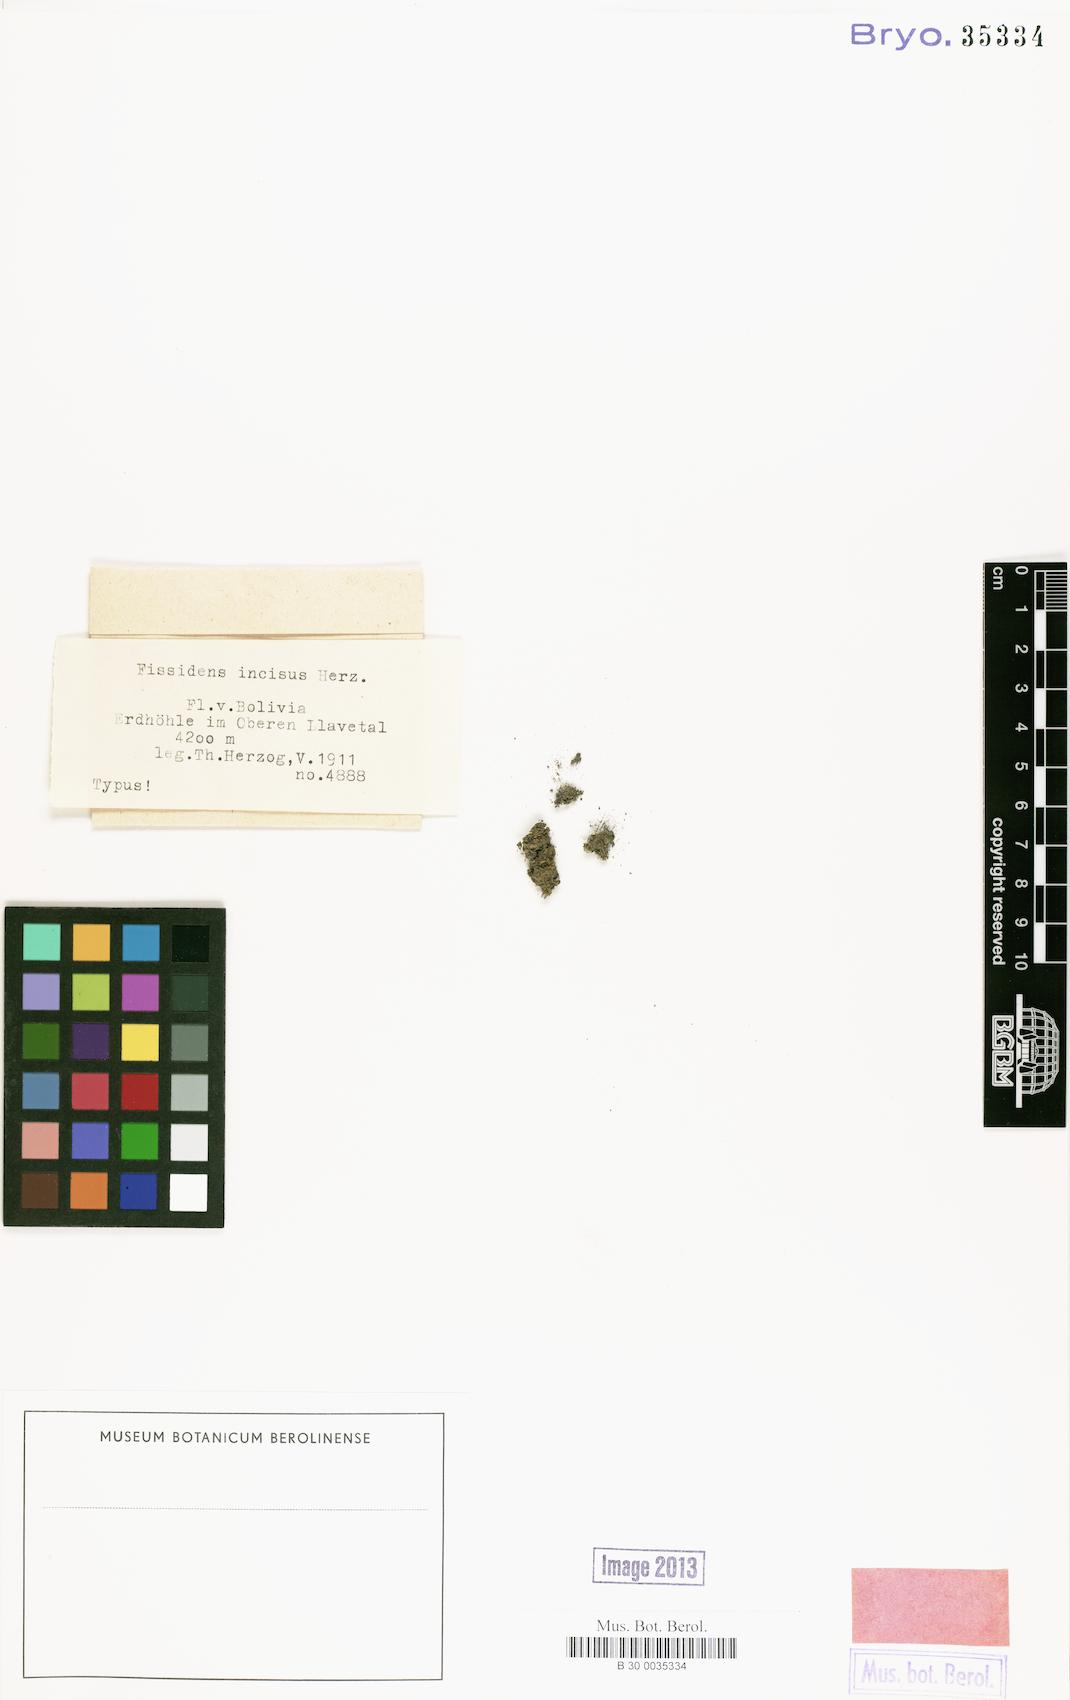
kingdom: Plantae
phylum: Bryophyta
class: Bryopsida
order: Dicranales
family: Fissidentaceae
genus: Fissidens
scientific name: Fissidens incisus
